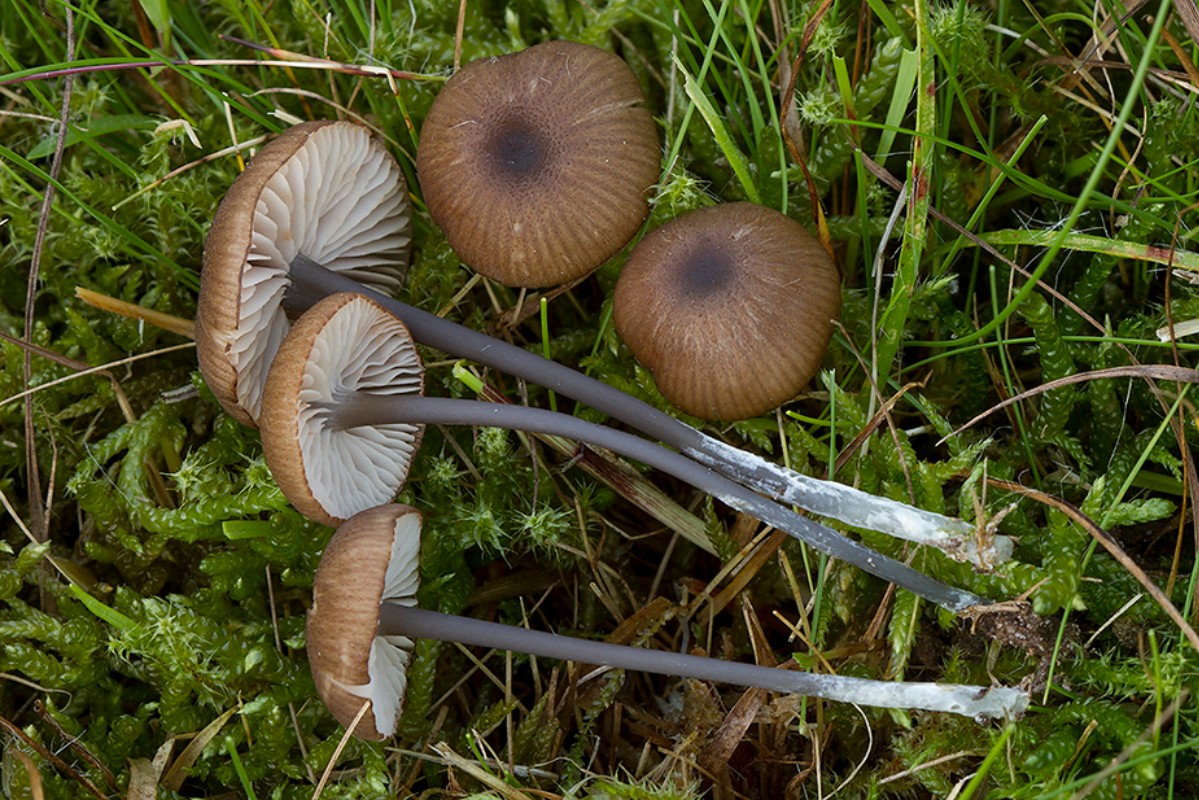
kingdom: Fungi
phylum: Basidiomycota
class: Agaricomycetes
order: Agaricales
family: Entolomataceae
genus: Entoloma
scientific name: Entoloma asprellum
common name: ru rødblad
